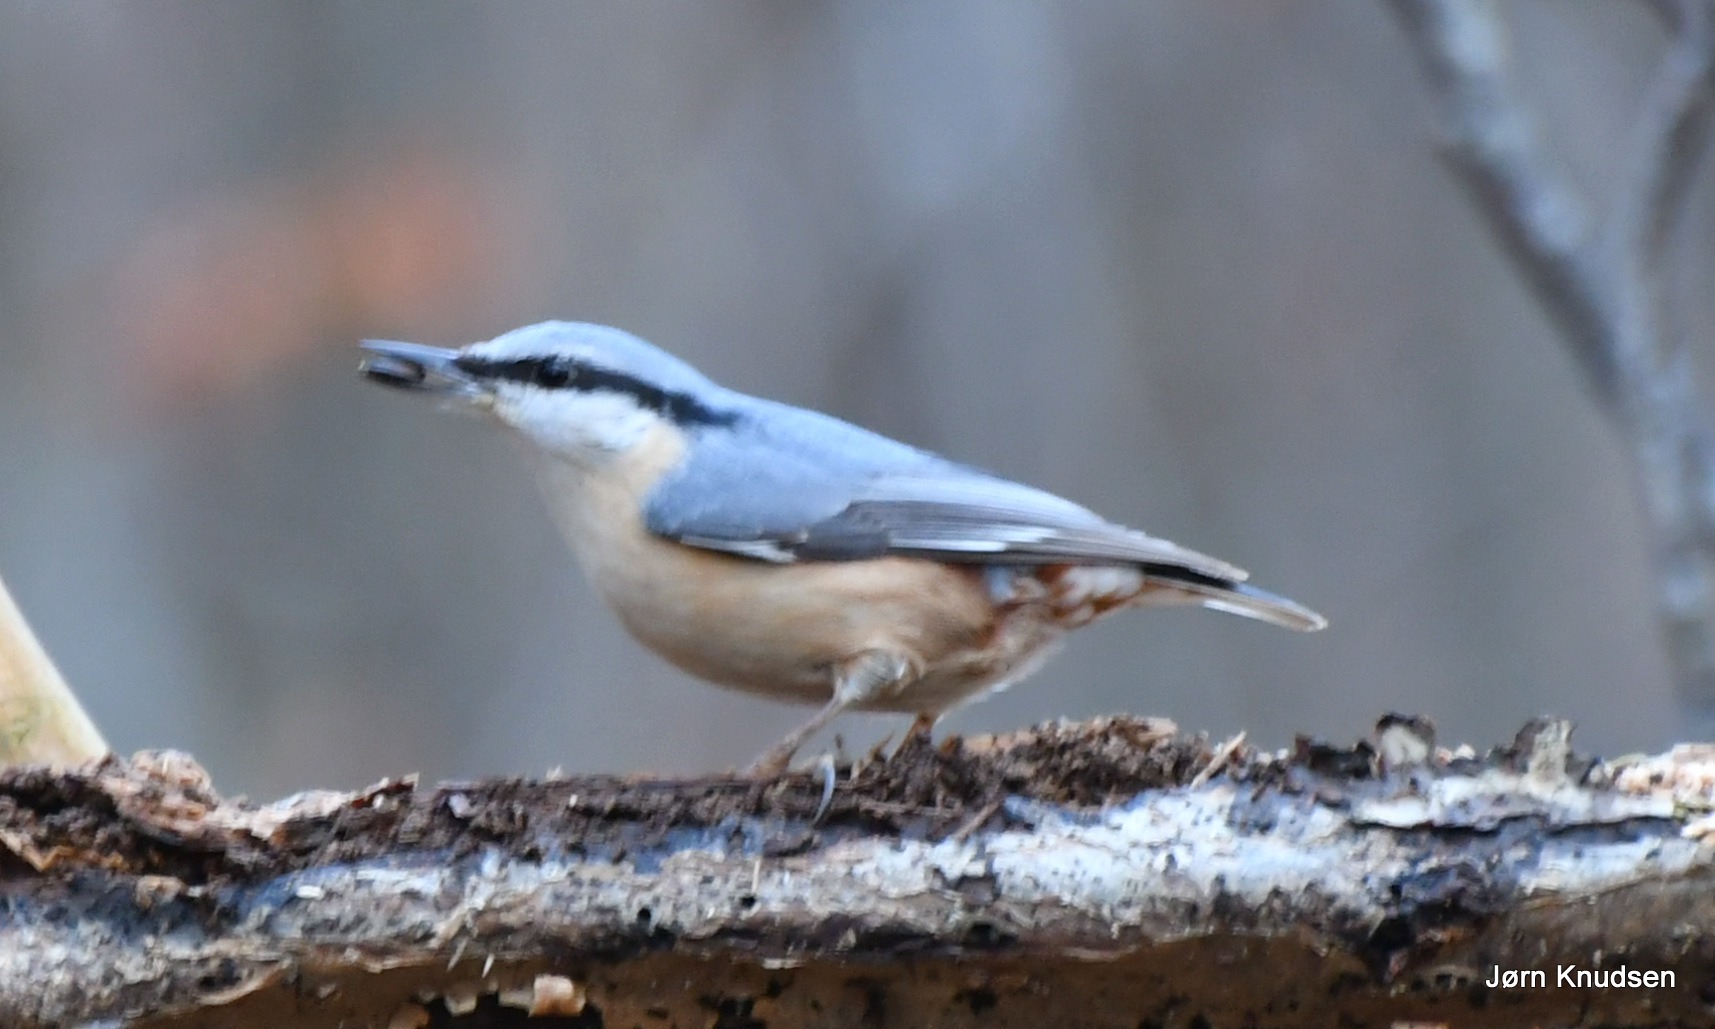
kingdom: Animalia
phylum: Chordata
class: Aves
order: Passeriformes
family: Sittidae
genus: Sitta
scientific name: Sitta europaea
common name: Spætmejse
